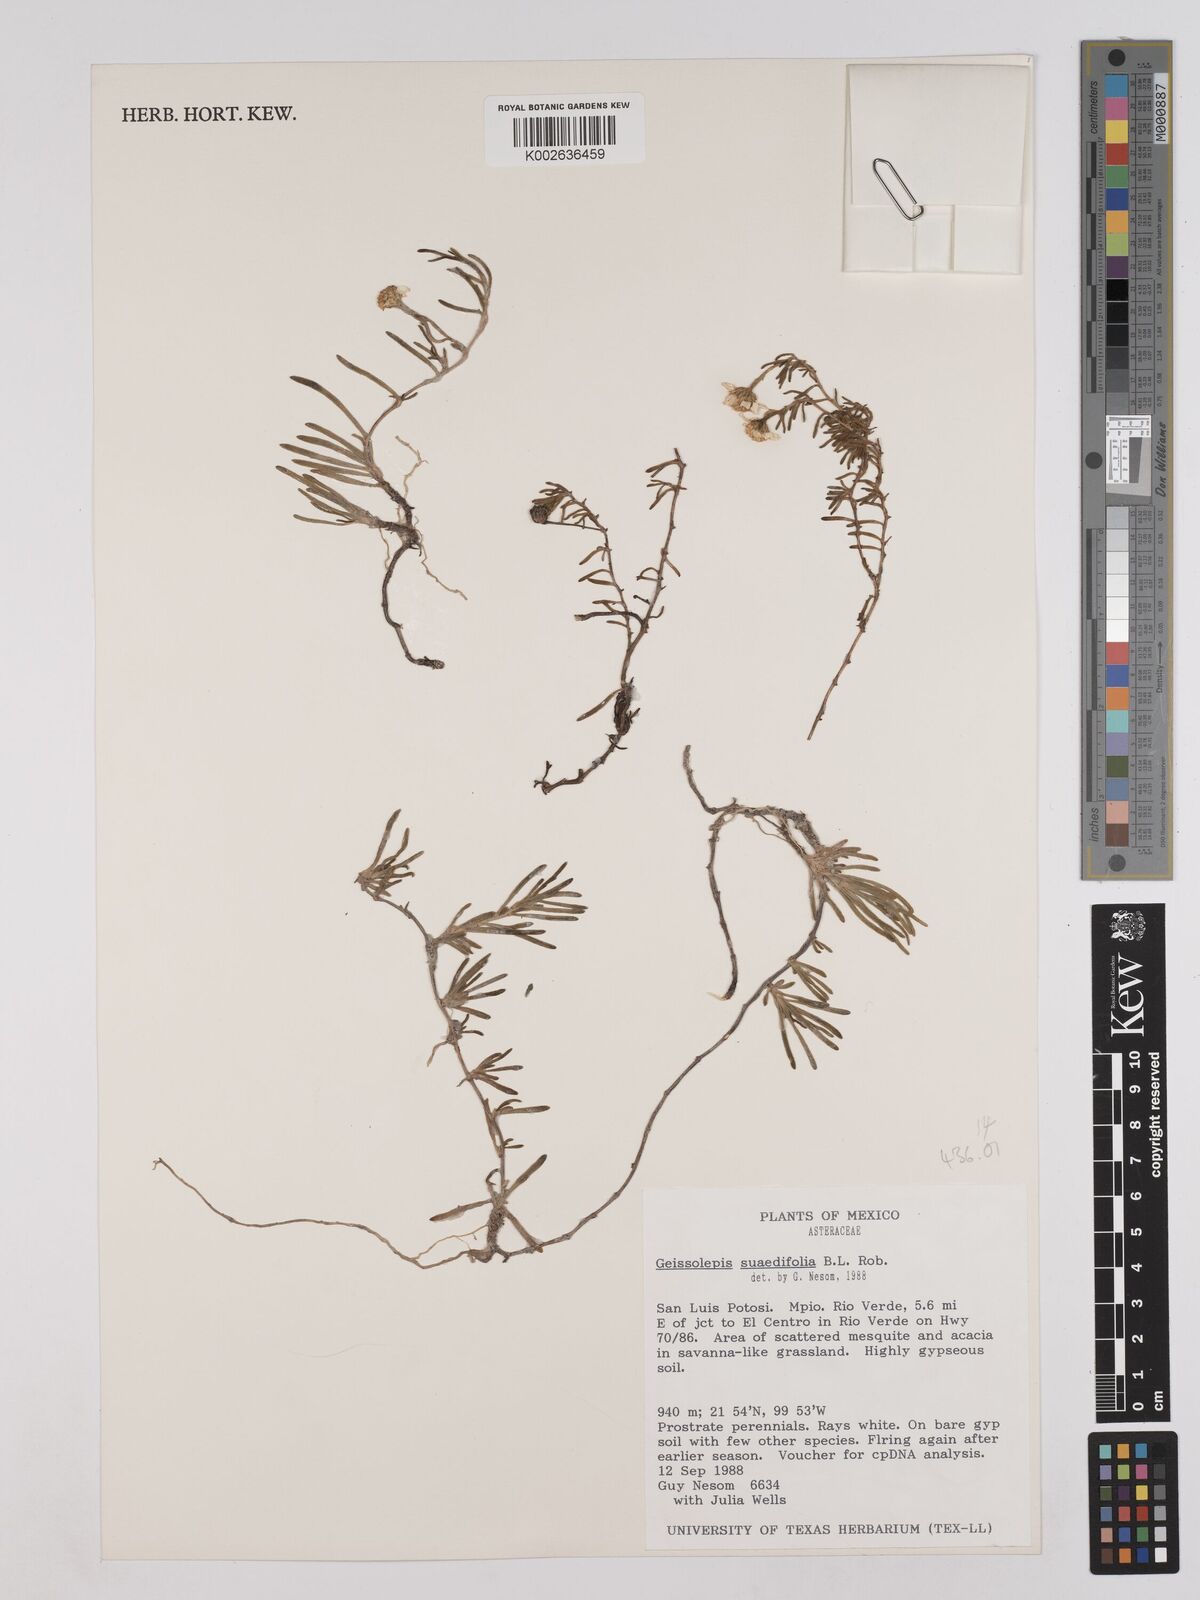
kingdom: Plantae
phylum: Tracheophyta
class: Magnoliopsida
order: Asterales
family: Asteraceae
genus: Geissolepis
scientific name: Geissolepis suaedifolia
